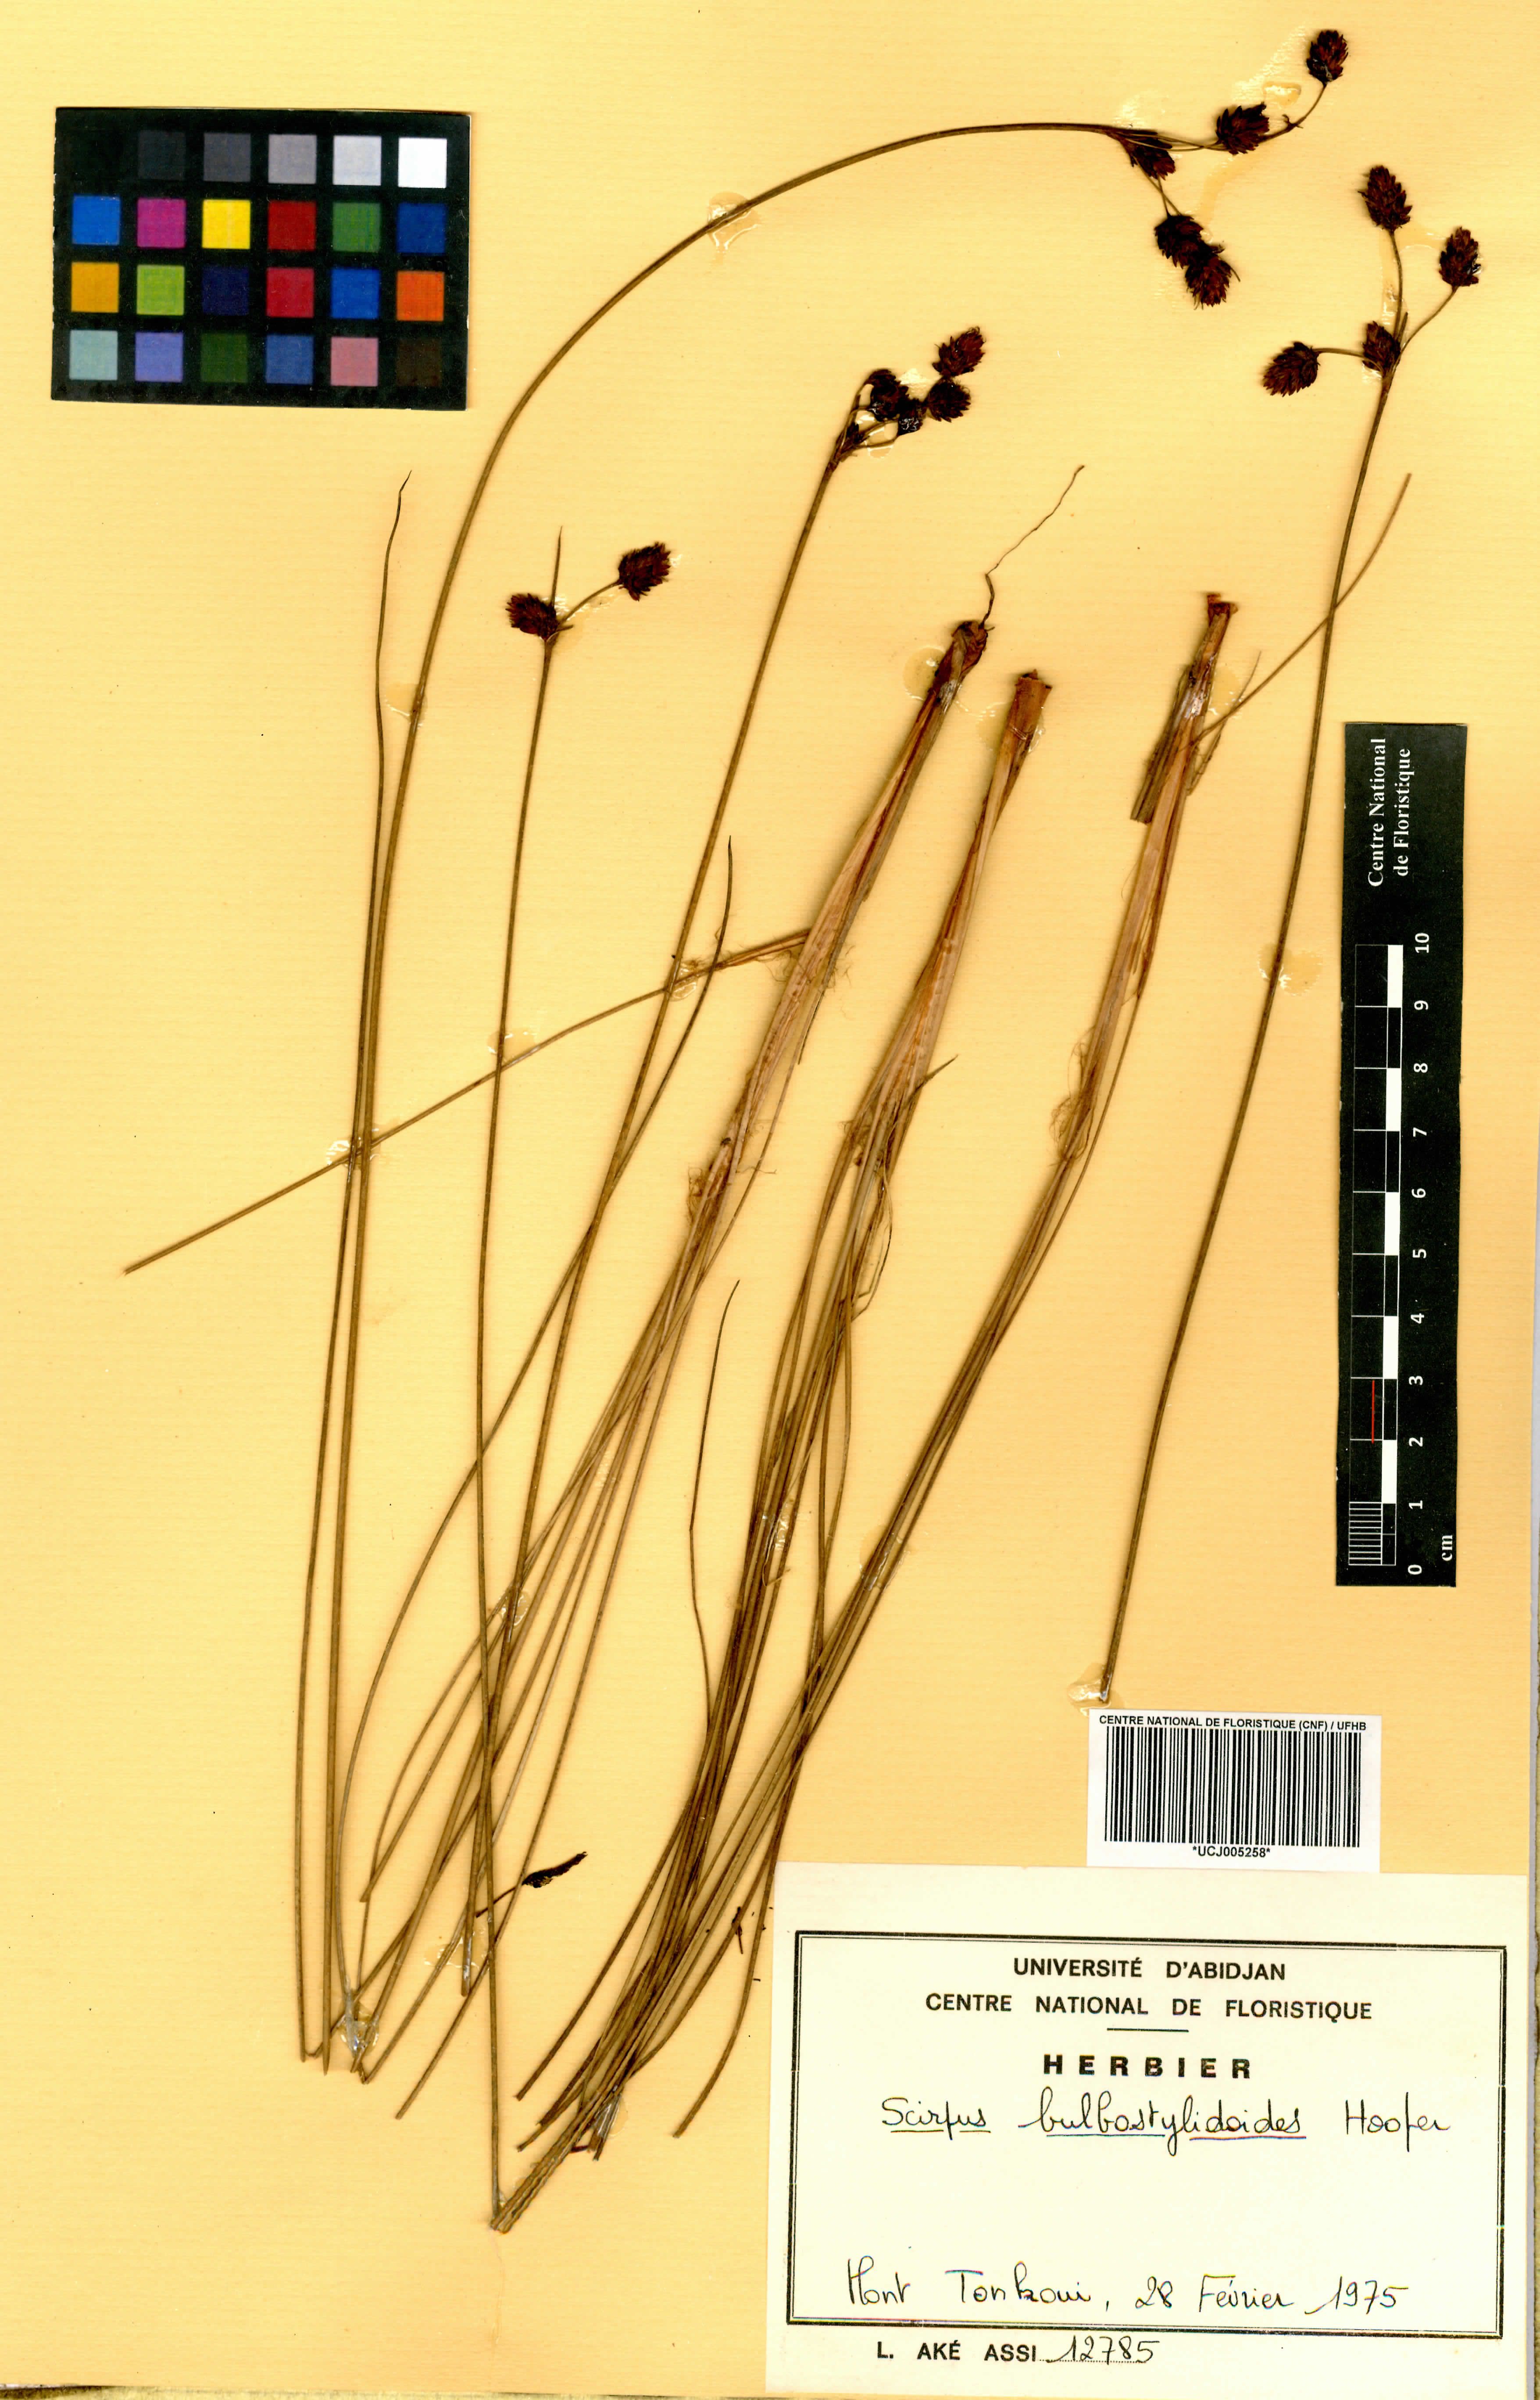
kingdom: Plantae
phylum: Tracheophyta
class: Liliopsida
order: Poales
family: Cyperaceae
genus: Bulbostylis
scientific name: Bulbostylis bulbostyloides
